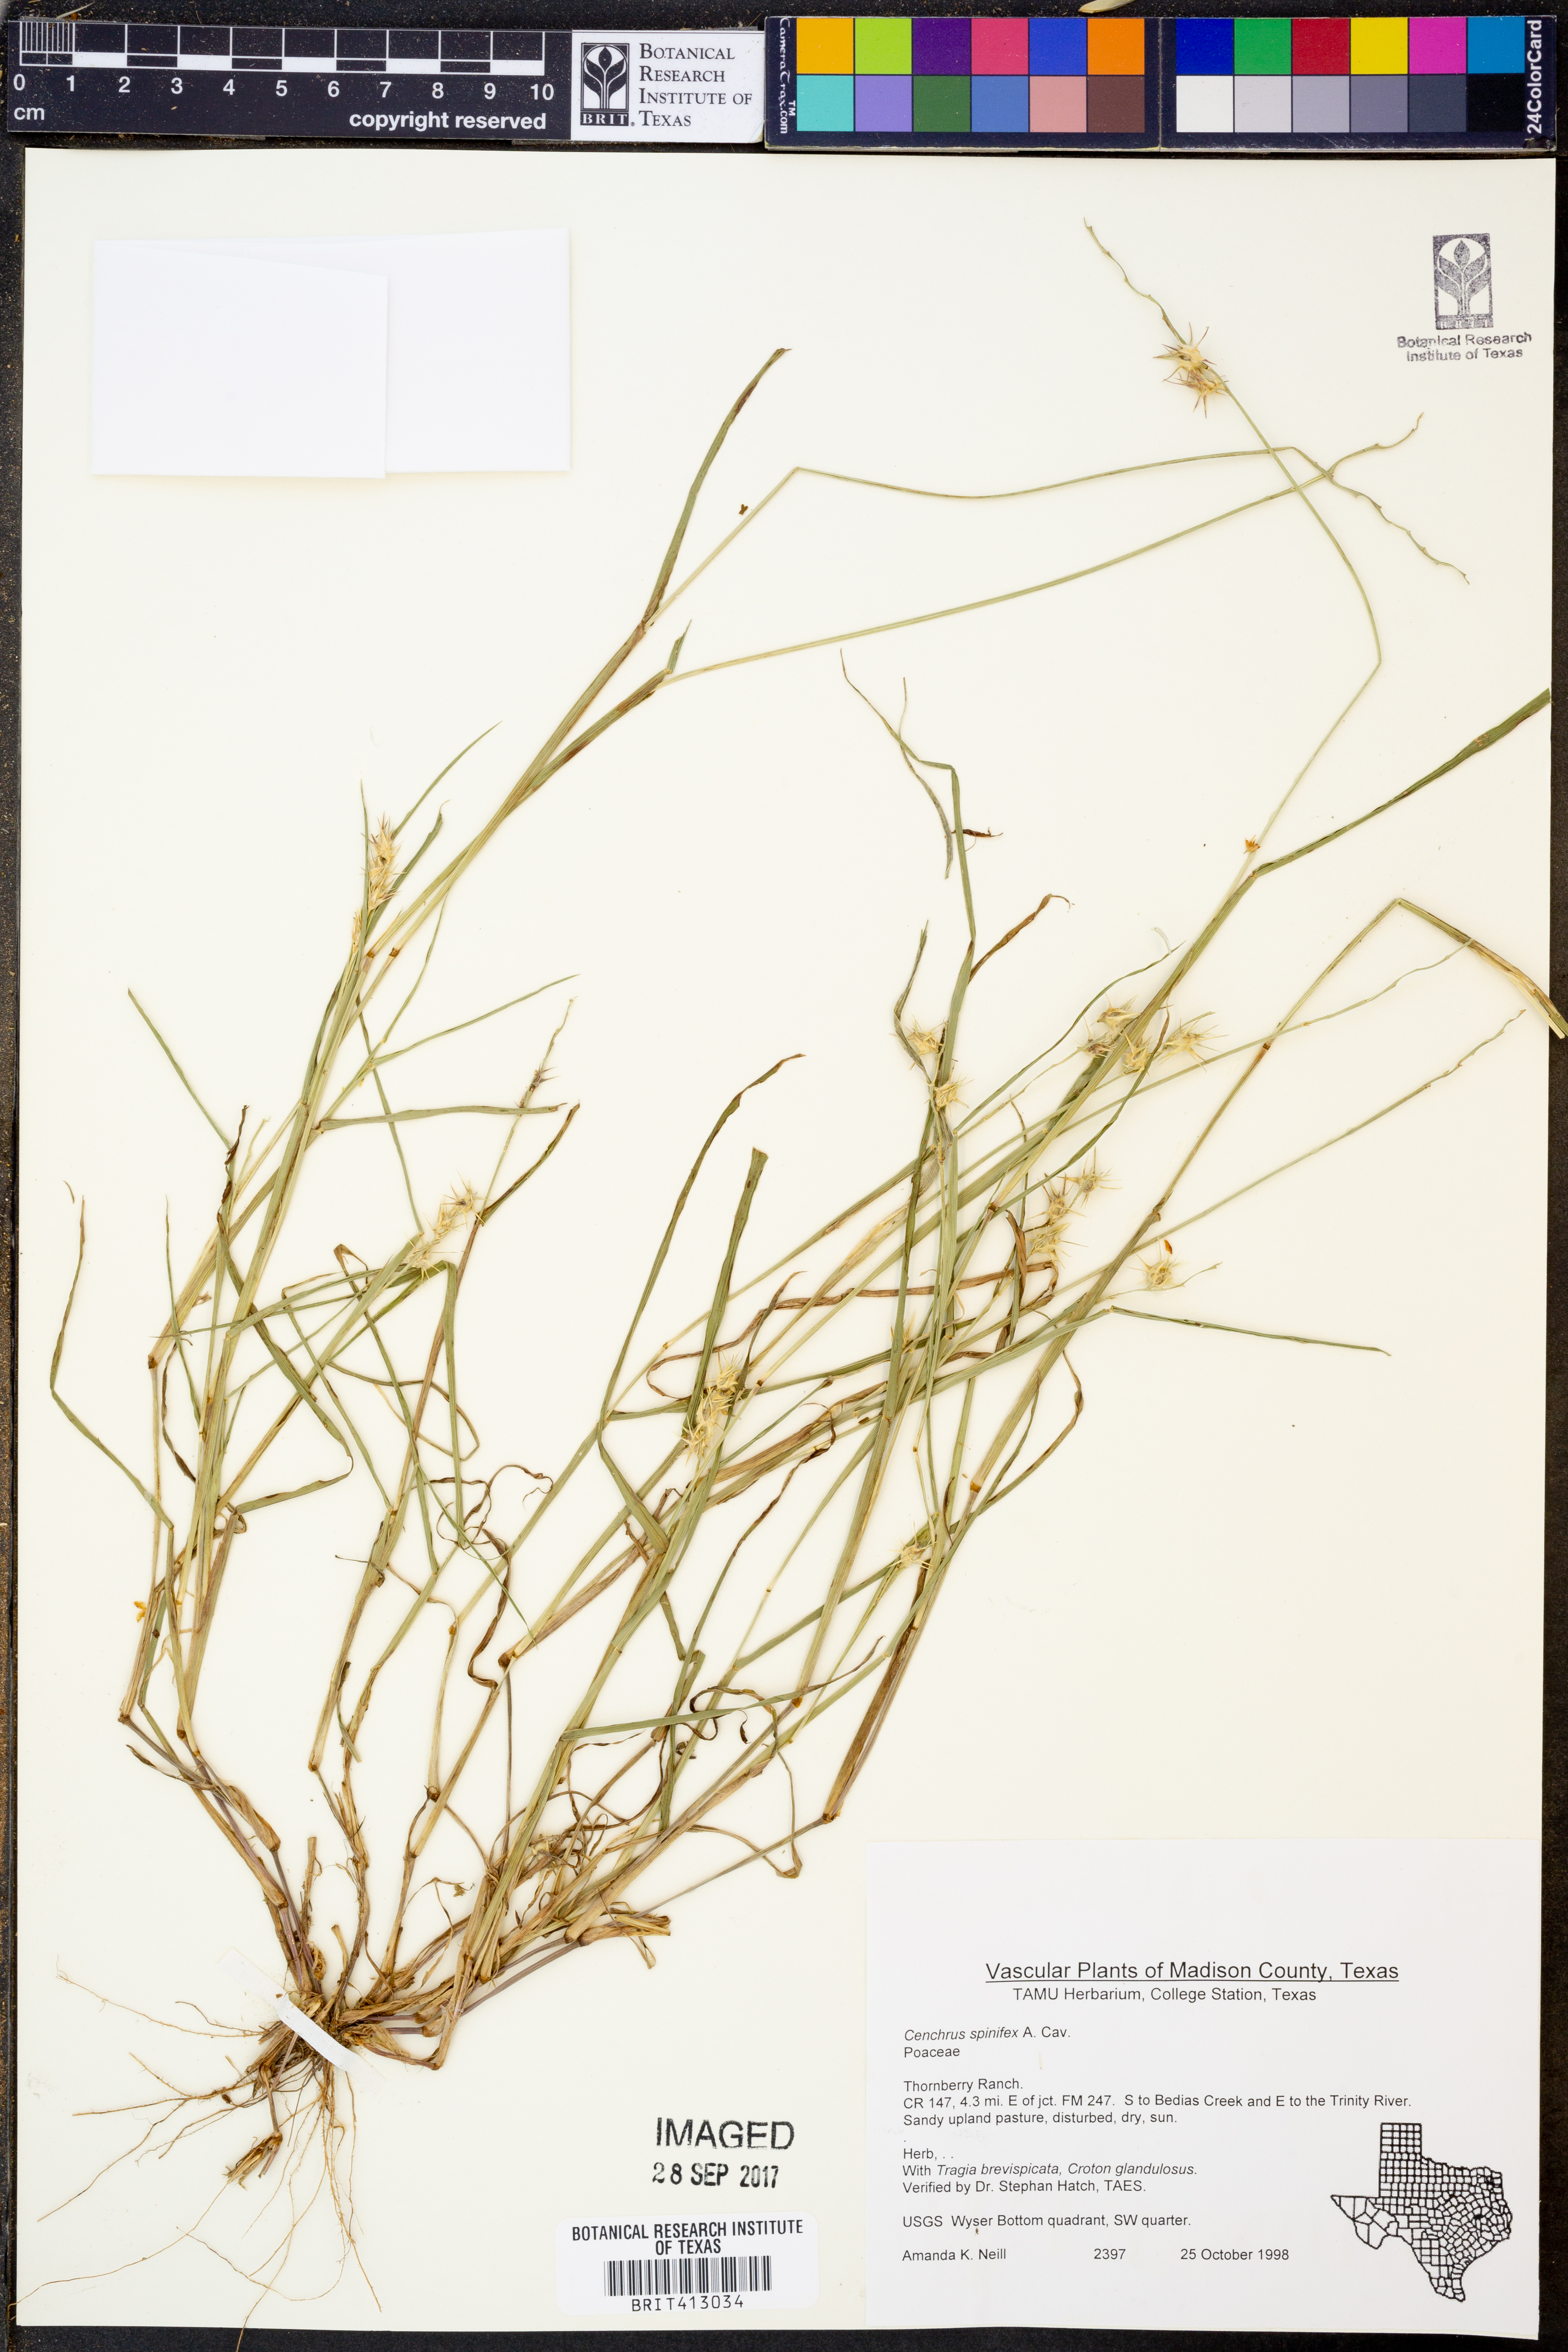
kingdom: Plantae
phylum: Tracheophyta
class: Liliopsida
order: Poales
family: Poaceae
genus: Cenchrus
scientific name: Cenchrus spinifex
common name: Coast sandbur
